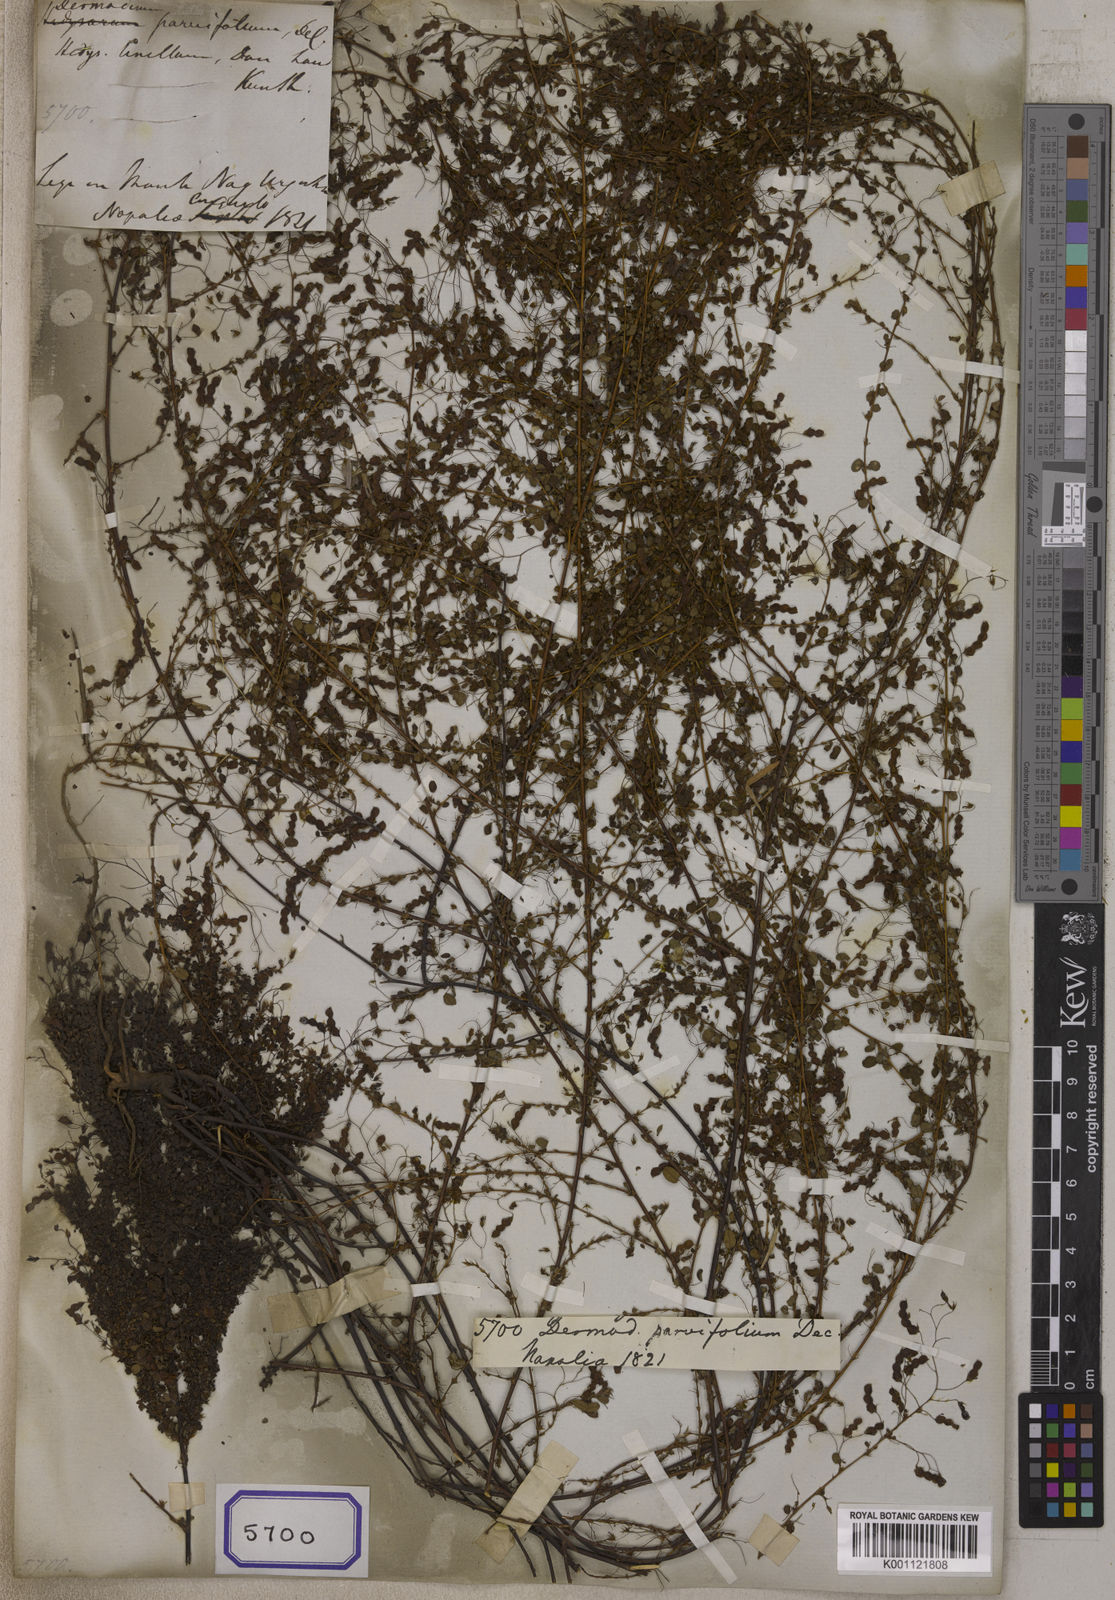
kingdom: Plantae
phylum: Tracheophyta
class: Magnoliopsida
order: Fabales
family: Fabaceae
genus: Leptodesmia
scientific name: Leptodesmia microphylla
